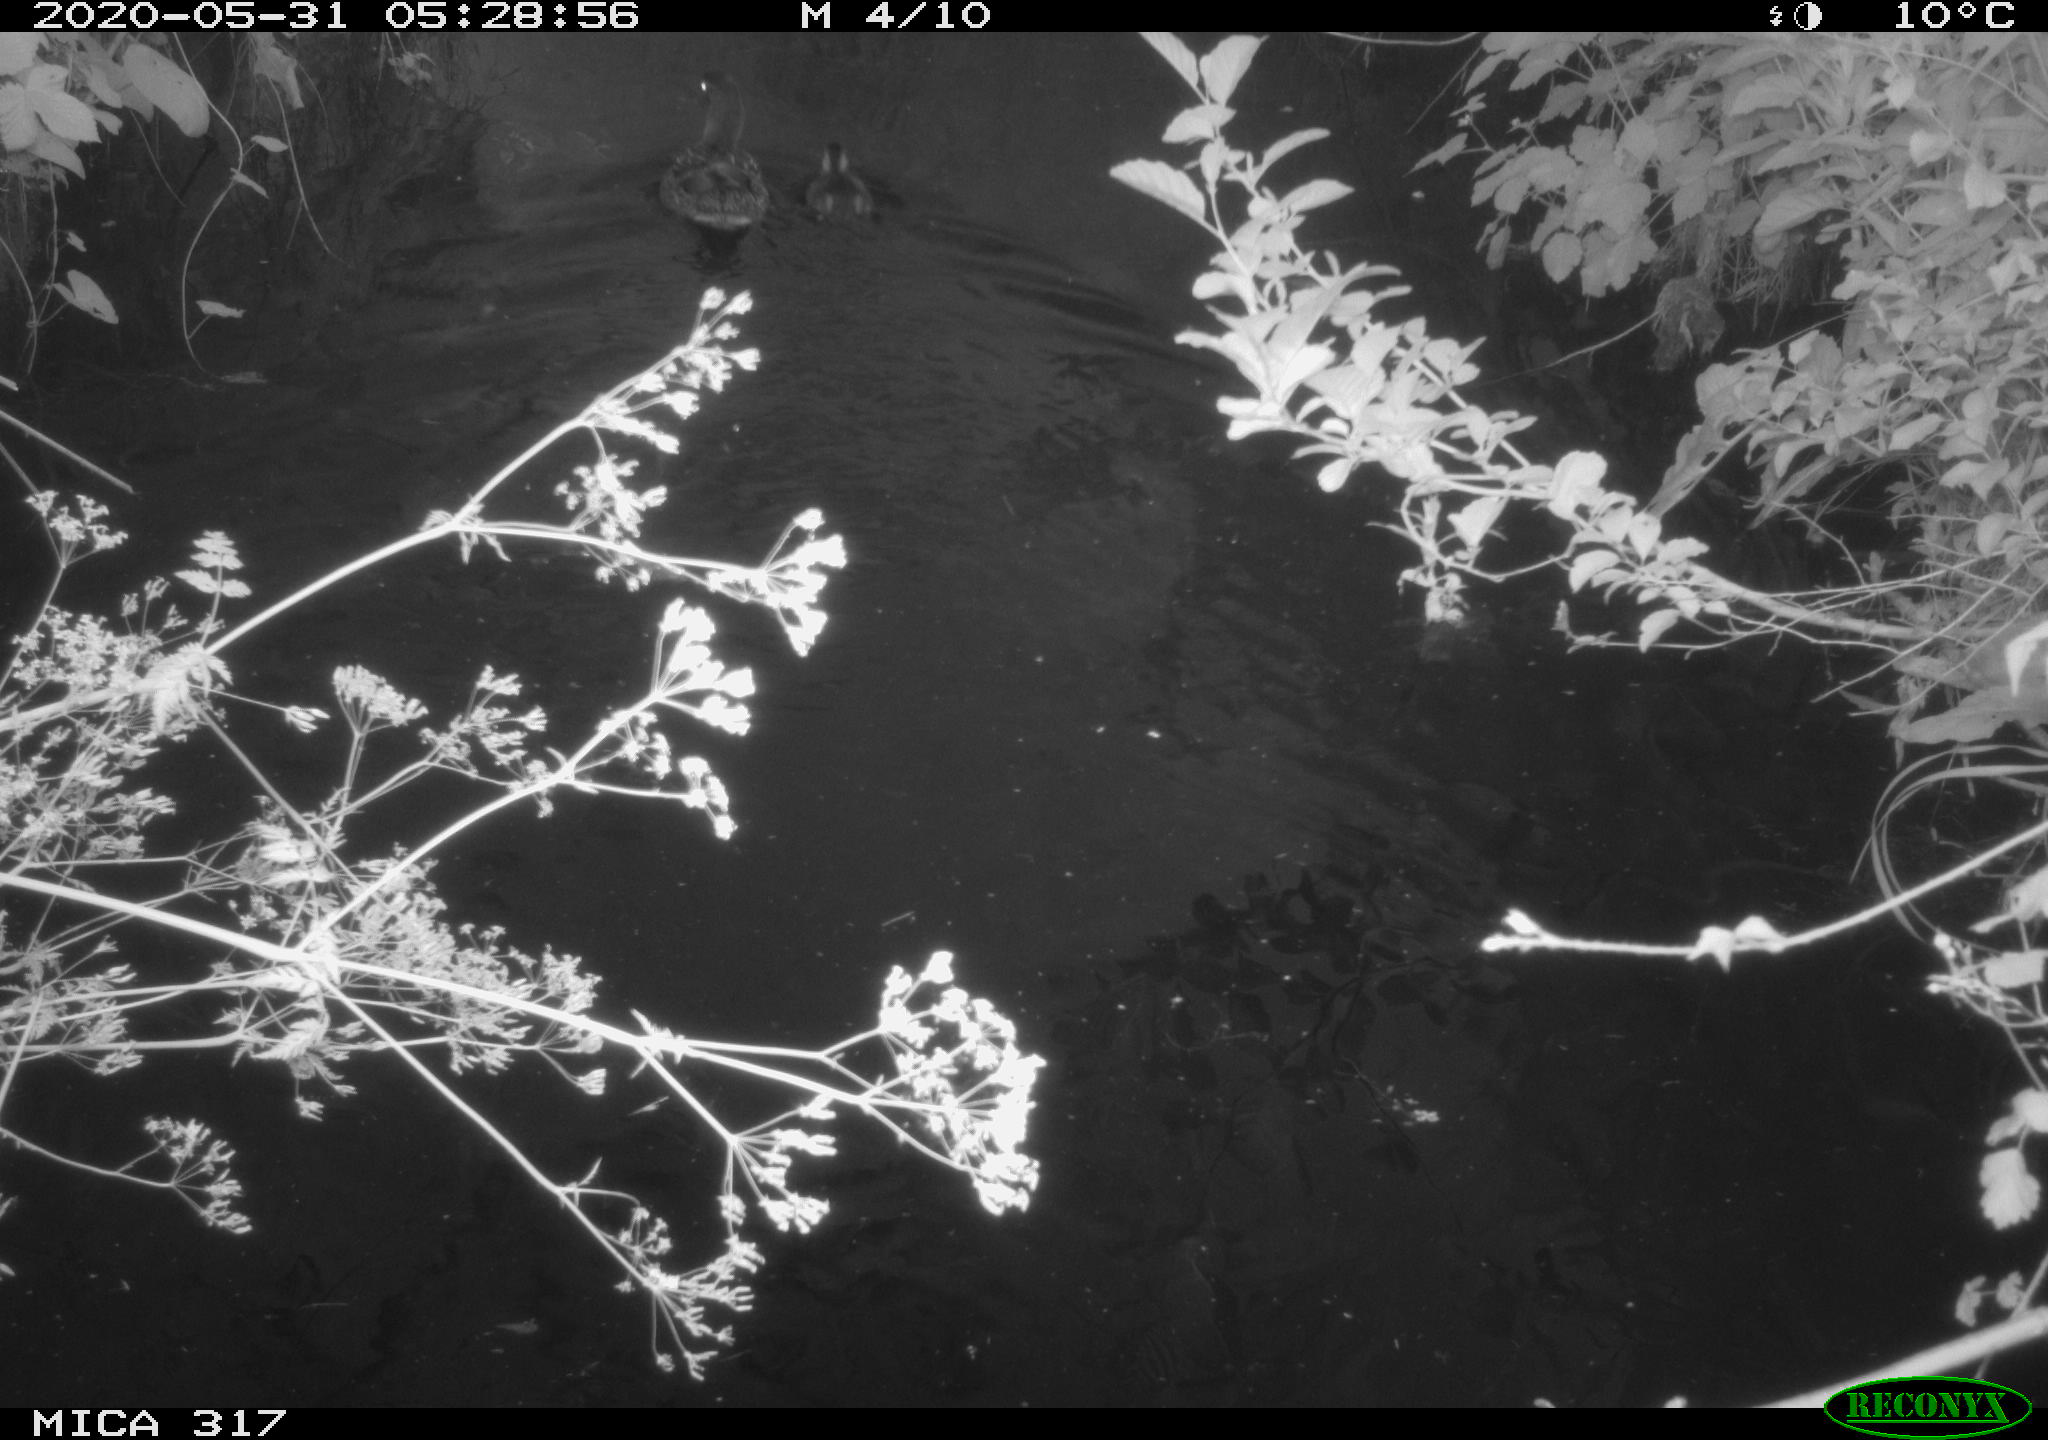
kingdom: Animalia
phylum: Chordata
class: Aves
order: Anseriformes
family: Anatidae
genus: Anas
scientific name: Anas platyrhynchos
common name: Mallard
